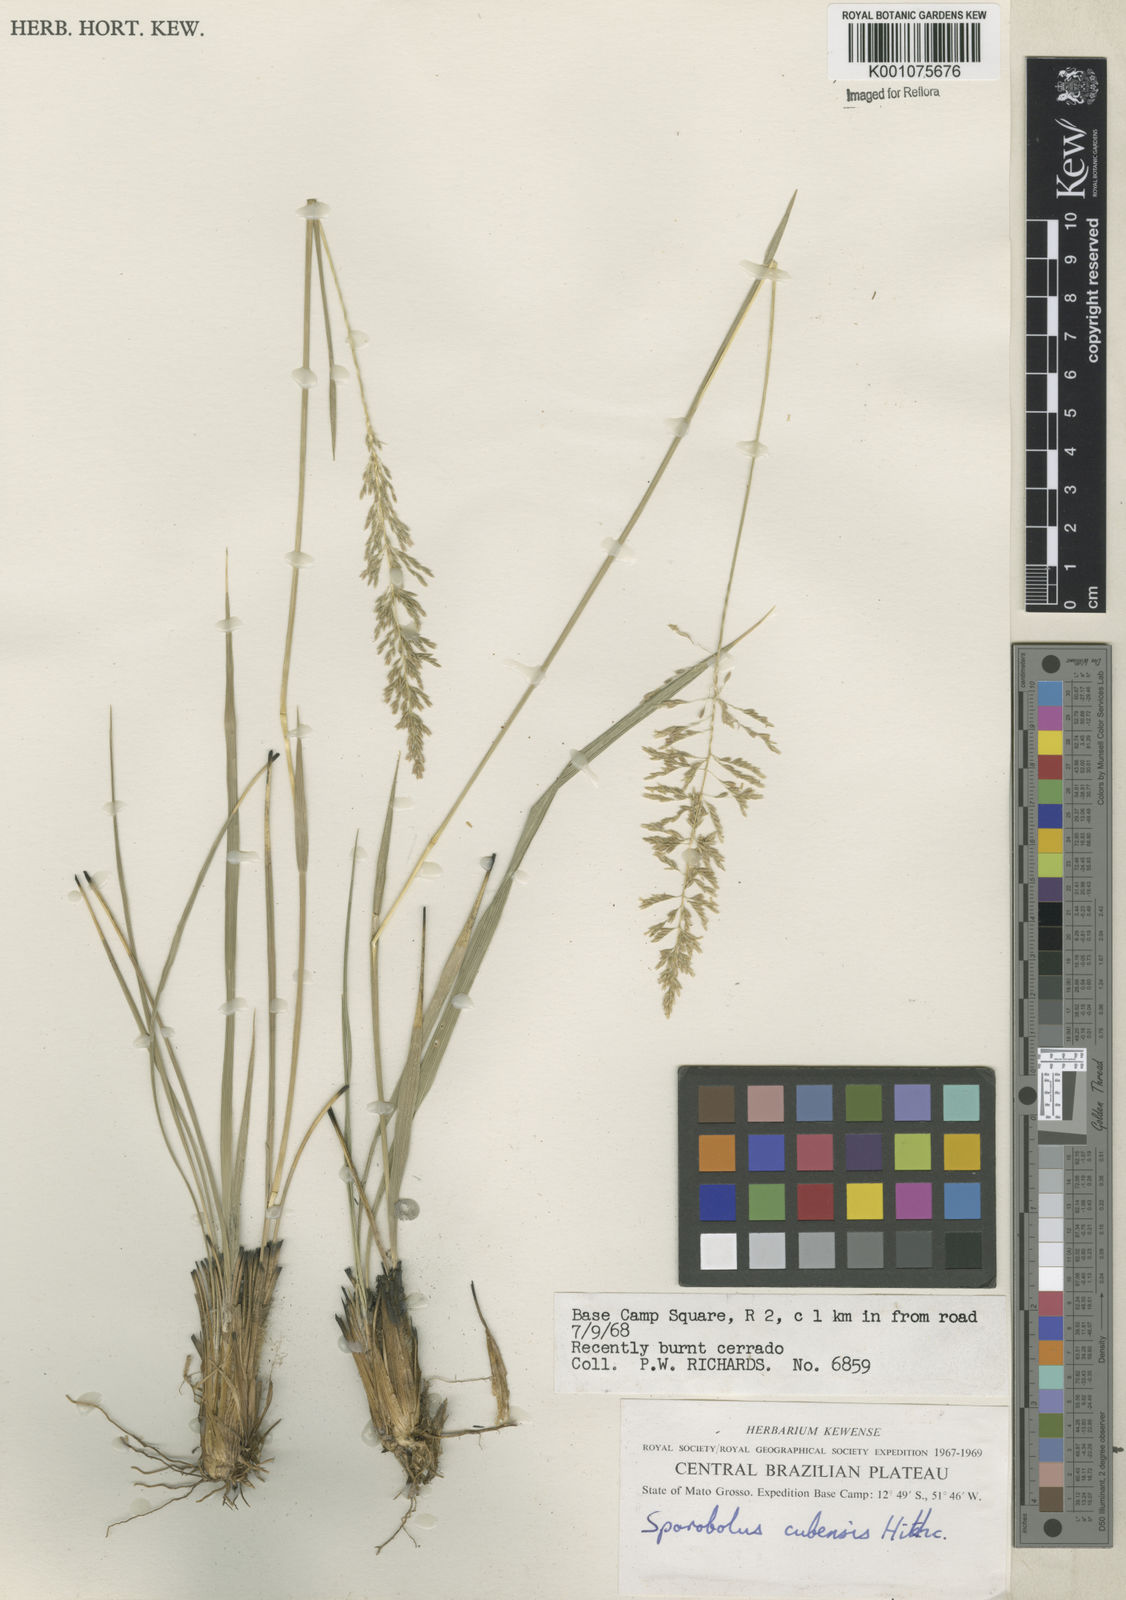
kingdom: Plantae
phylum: Tracheophyta
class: Liliopsida
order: Poales
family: Poaceae
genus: Sporobolus
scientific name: Sporobolus cubensis
